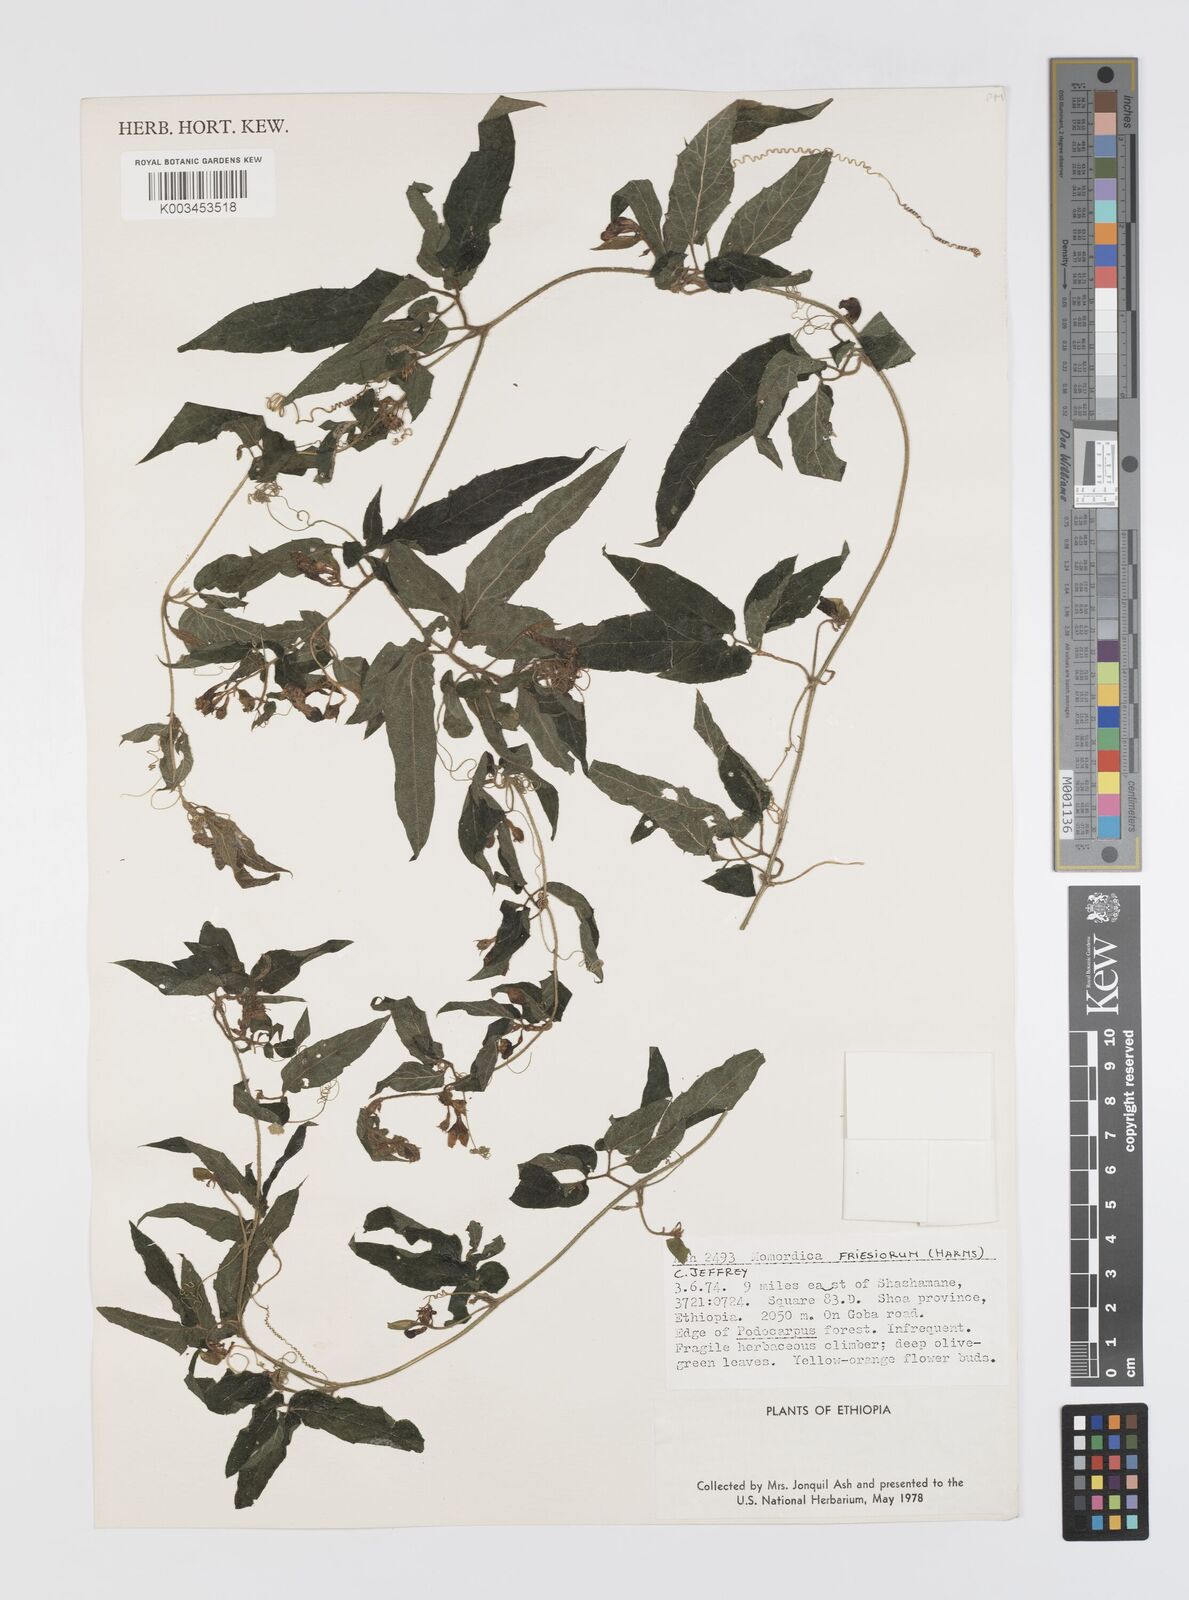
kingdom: Plantae
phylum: Tracheophyta
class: Magnoliopsida
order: Cucurbitales
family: Cucurbitaceae
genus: Momordica
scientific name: Momordica friesiorum
